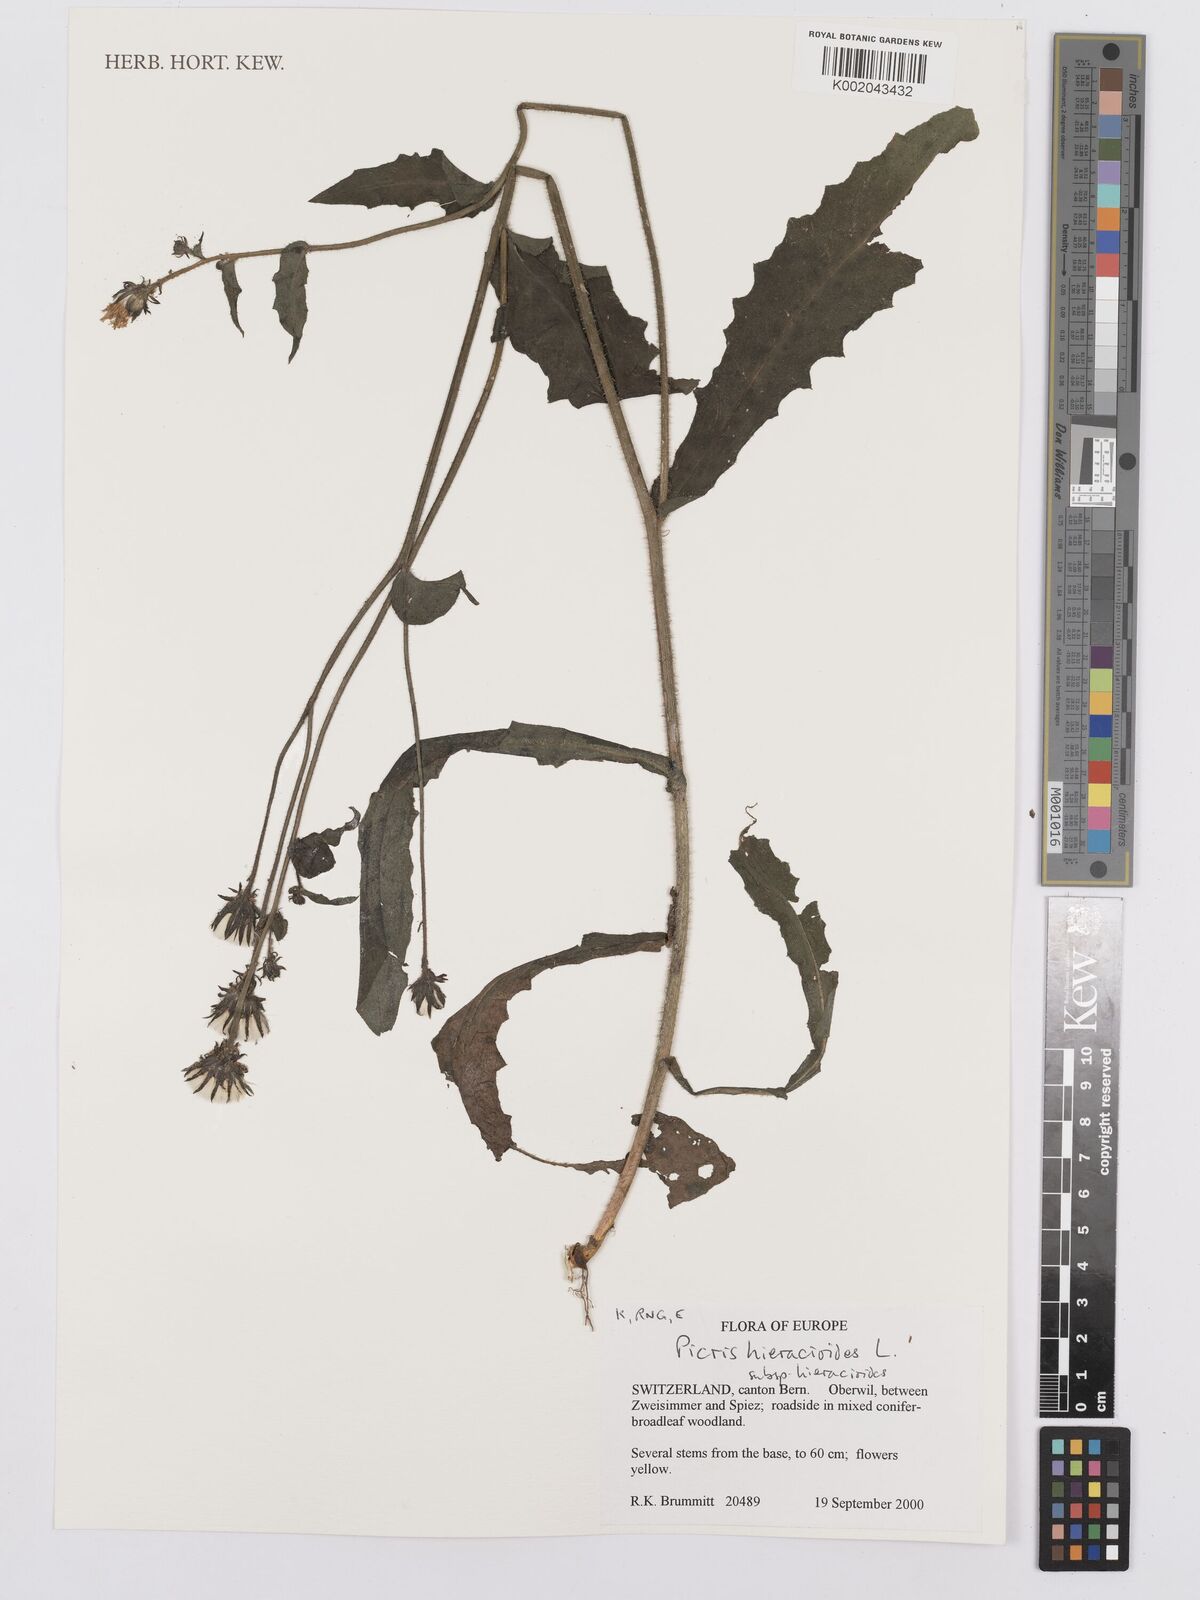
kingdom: Plantae
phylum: Tracheophyta
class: Magnoliopsida
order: Asterales
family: Asteraceae
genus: Picris
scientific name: Picris hieracioides
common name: Hawkweed oxtongue
